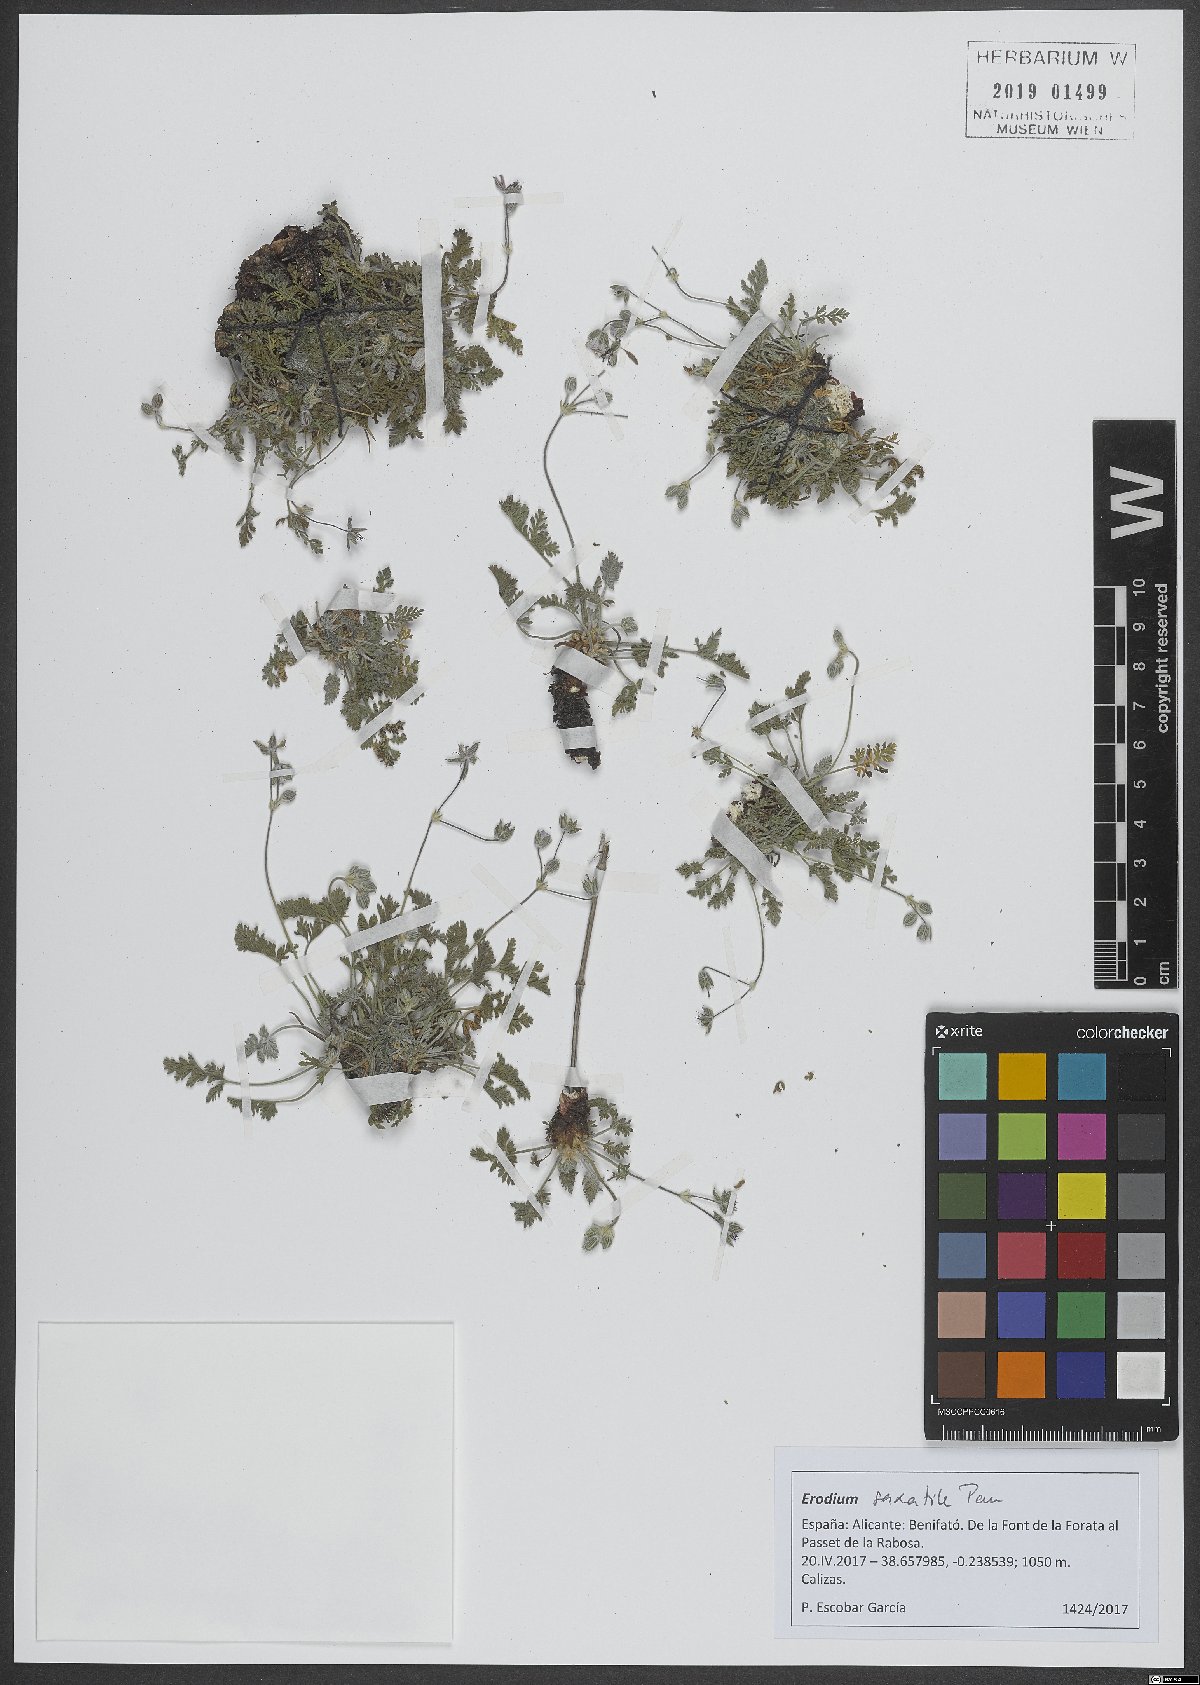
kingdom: Plantae
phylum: Tracheophyta
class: Magnoliopsida
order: Geraniales
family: Geraniaceae
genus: Erodium
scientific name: Erodium saxatile
